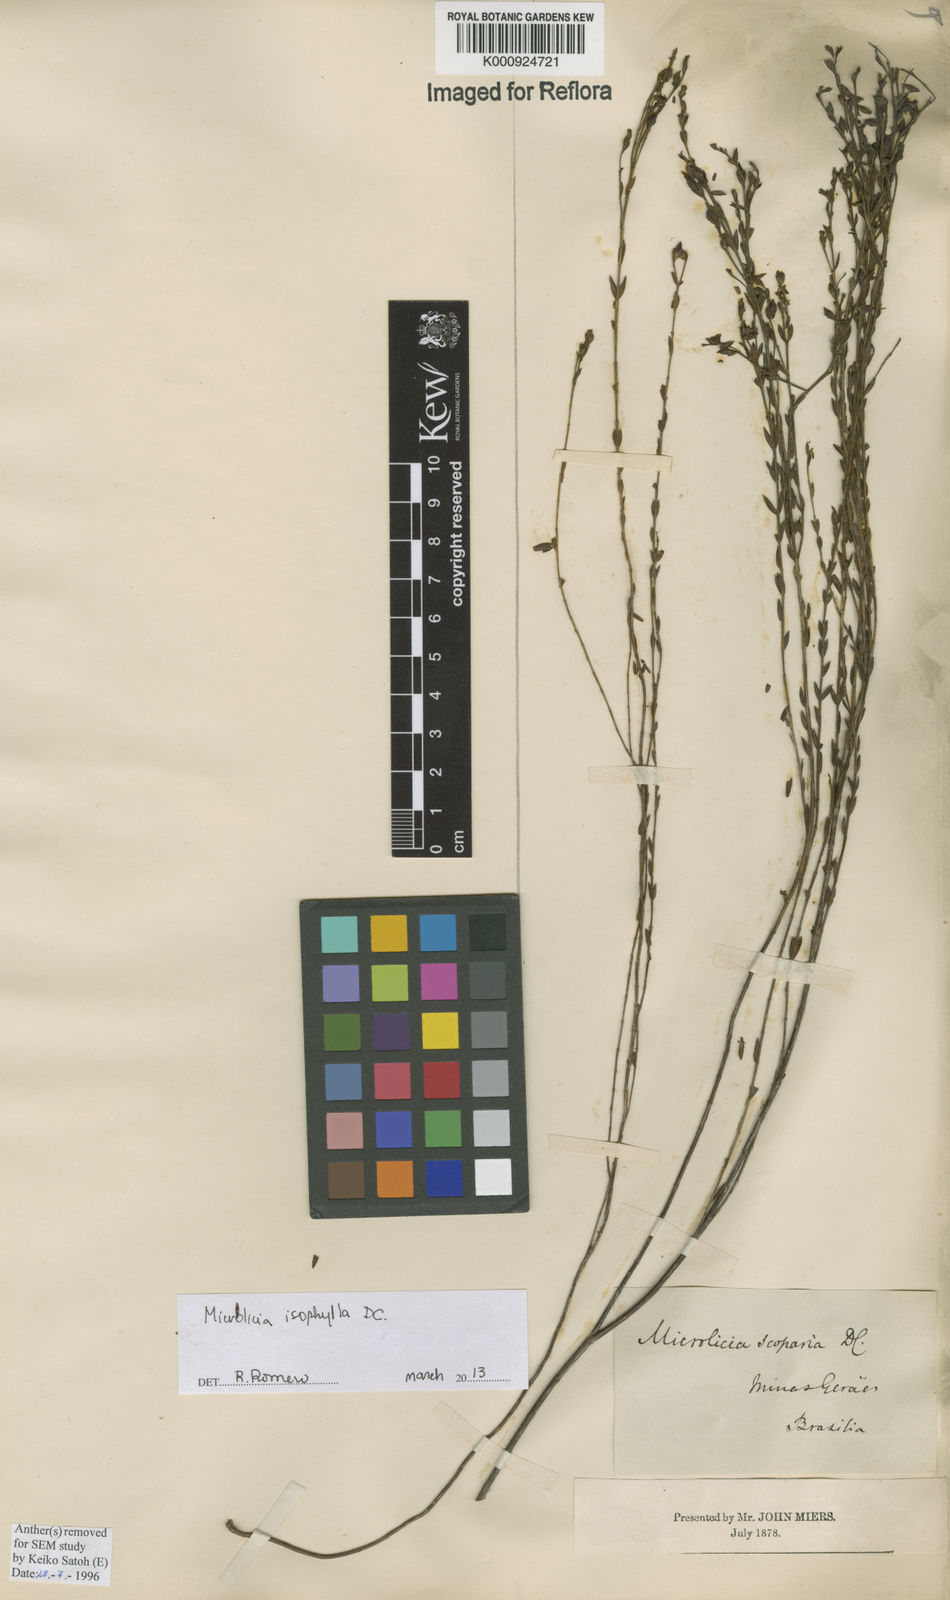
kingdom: Plantae
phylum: Tracheophyta
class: Magnoliopsida
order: Myrtales
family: Melastomataceae
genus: Microlicia
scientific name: Microlicia isophylla
